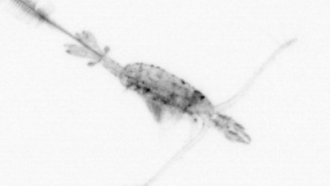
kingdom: Animalia
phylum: Arthropoda
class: Copepoda
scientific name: Copepoda
